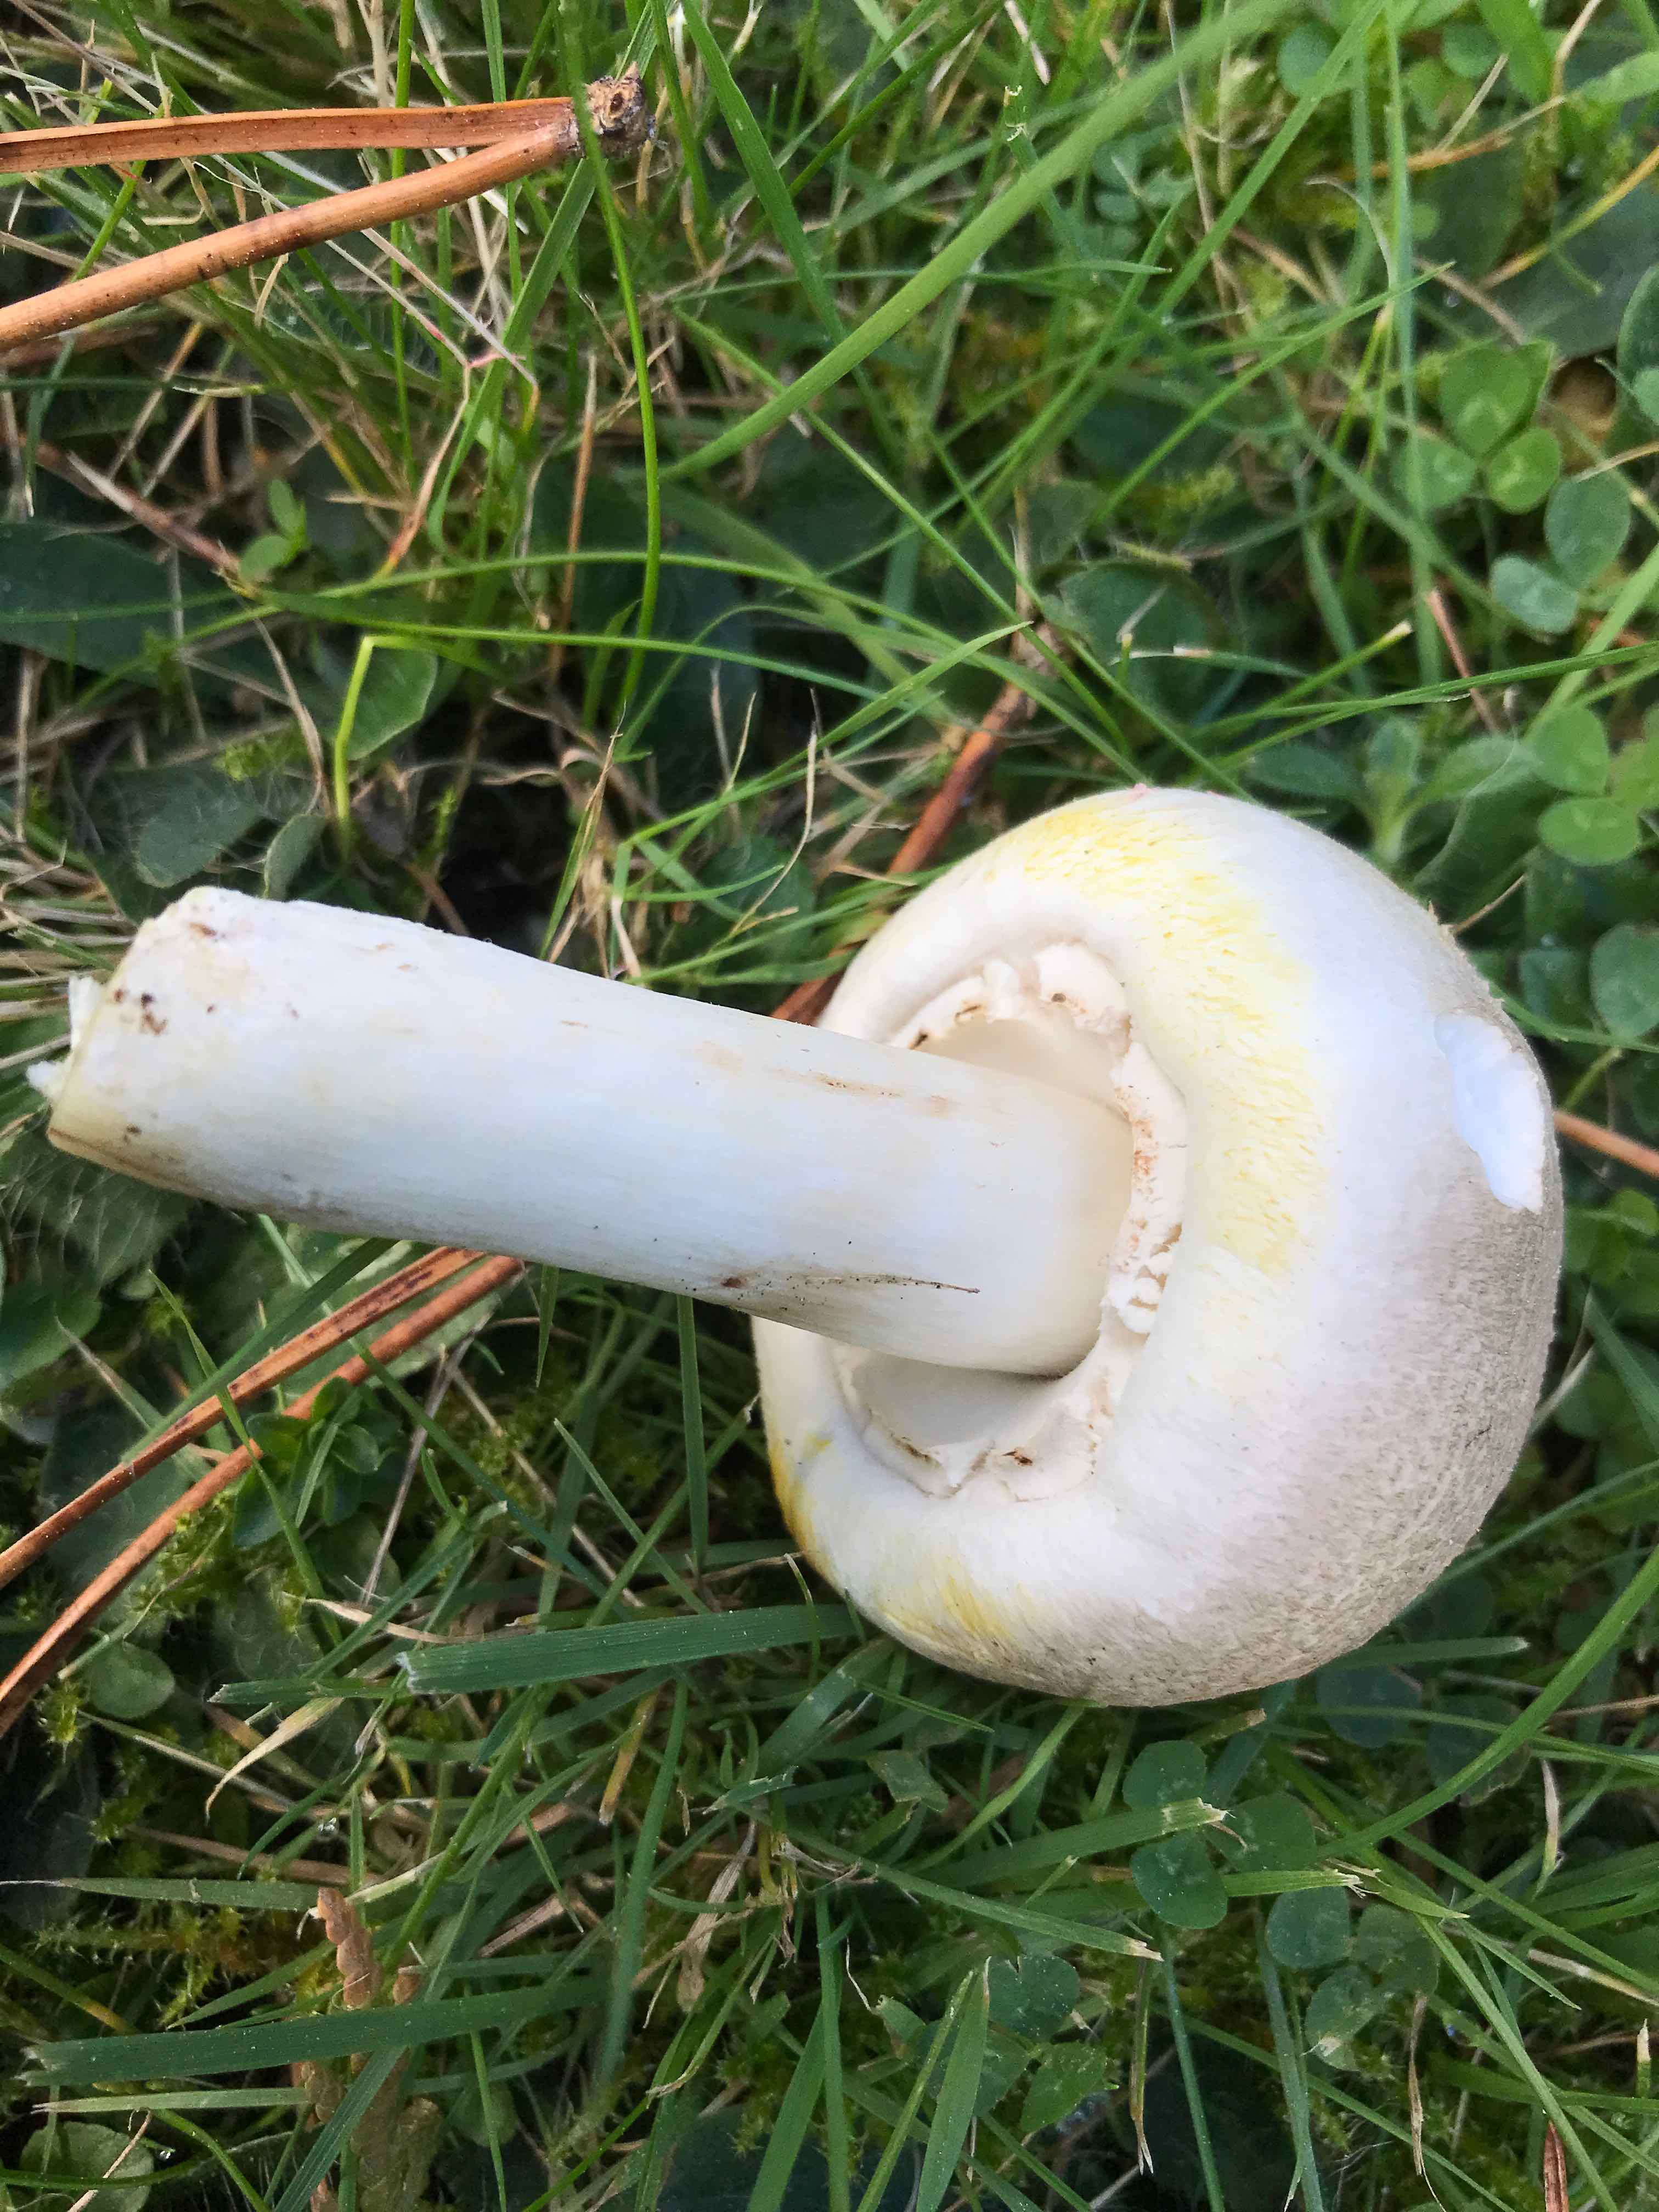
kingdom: Fungi
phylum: Basidiomycota
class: Agaricomycetes
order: Agaricales
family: Agaricaceae
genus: Agaricus
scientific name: Agaricus xanthodermus
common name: karbol-champignon
